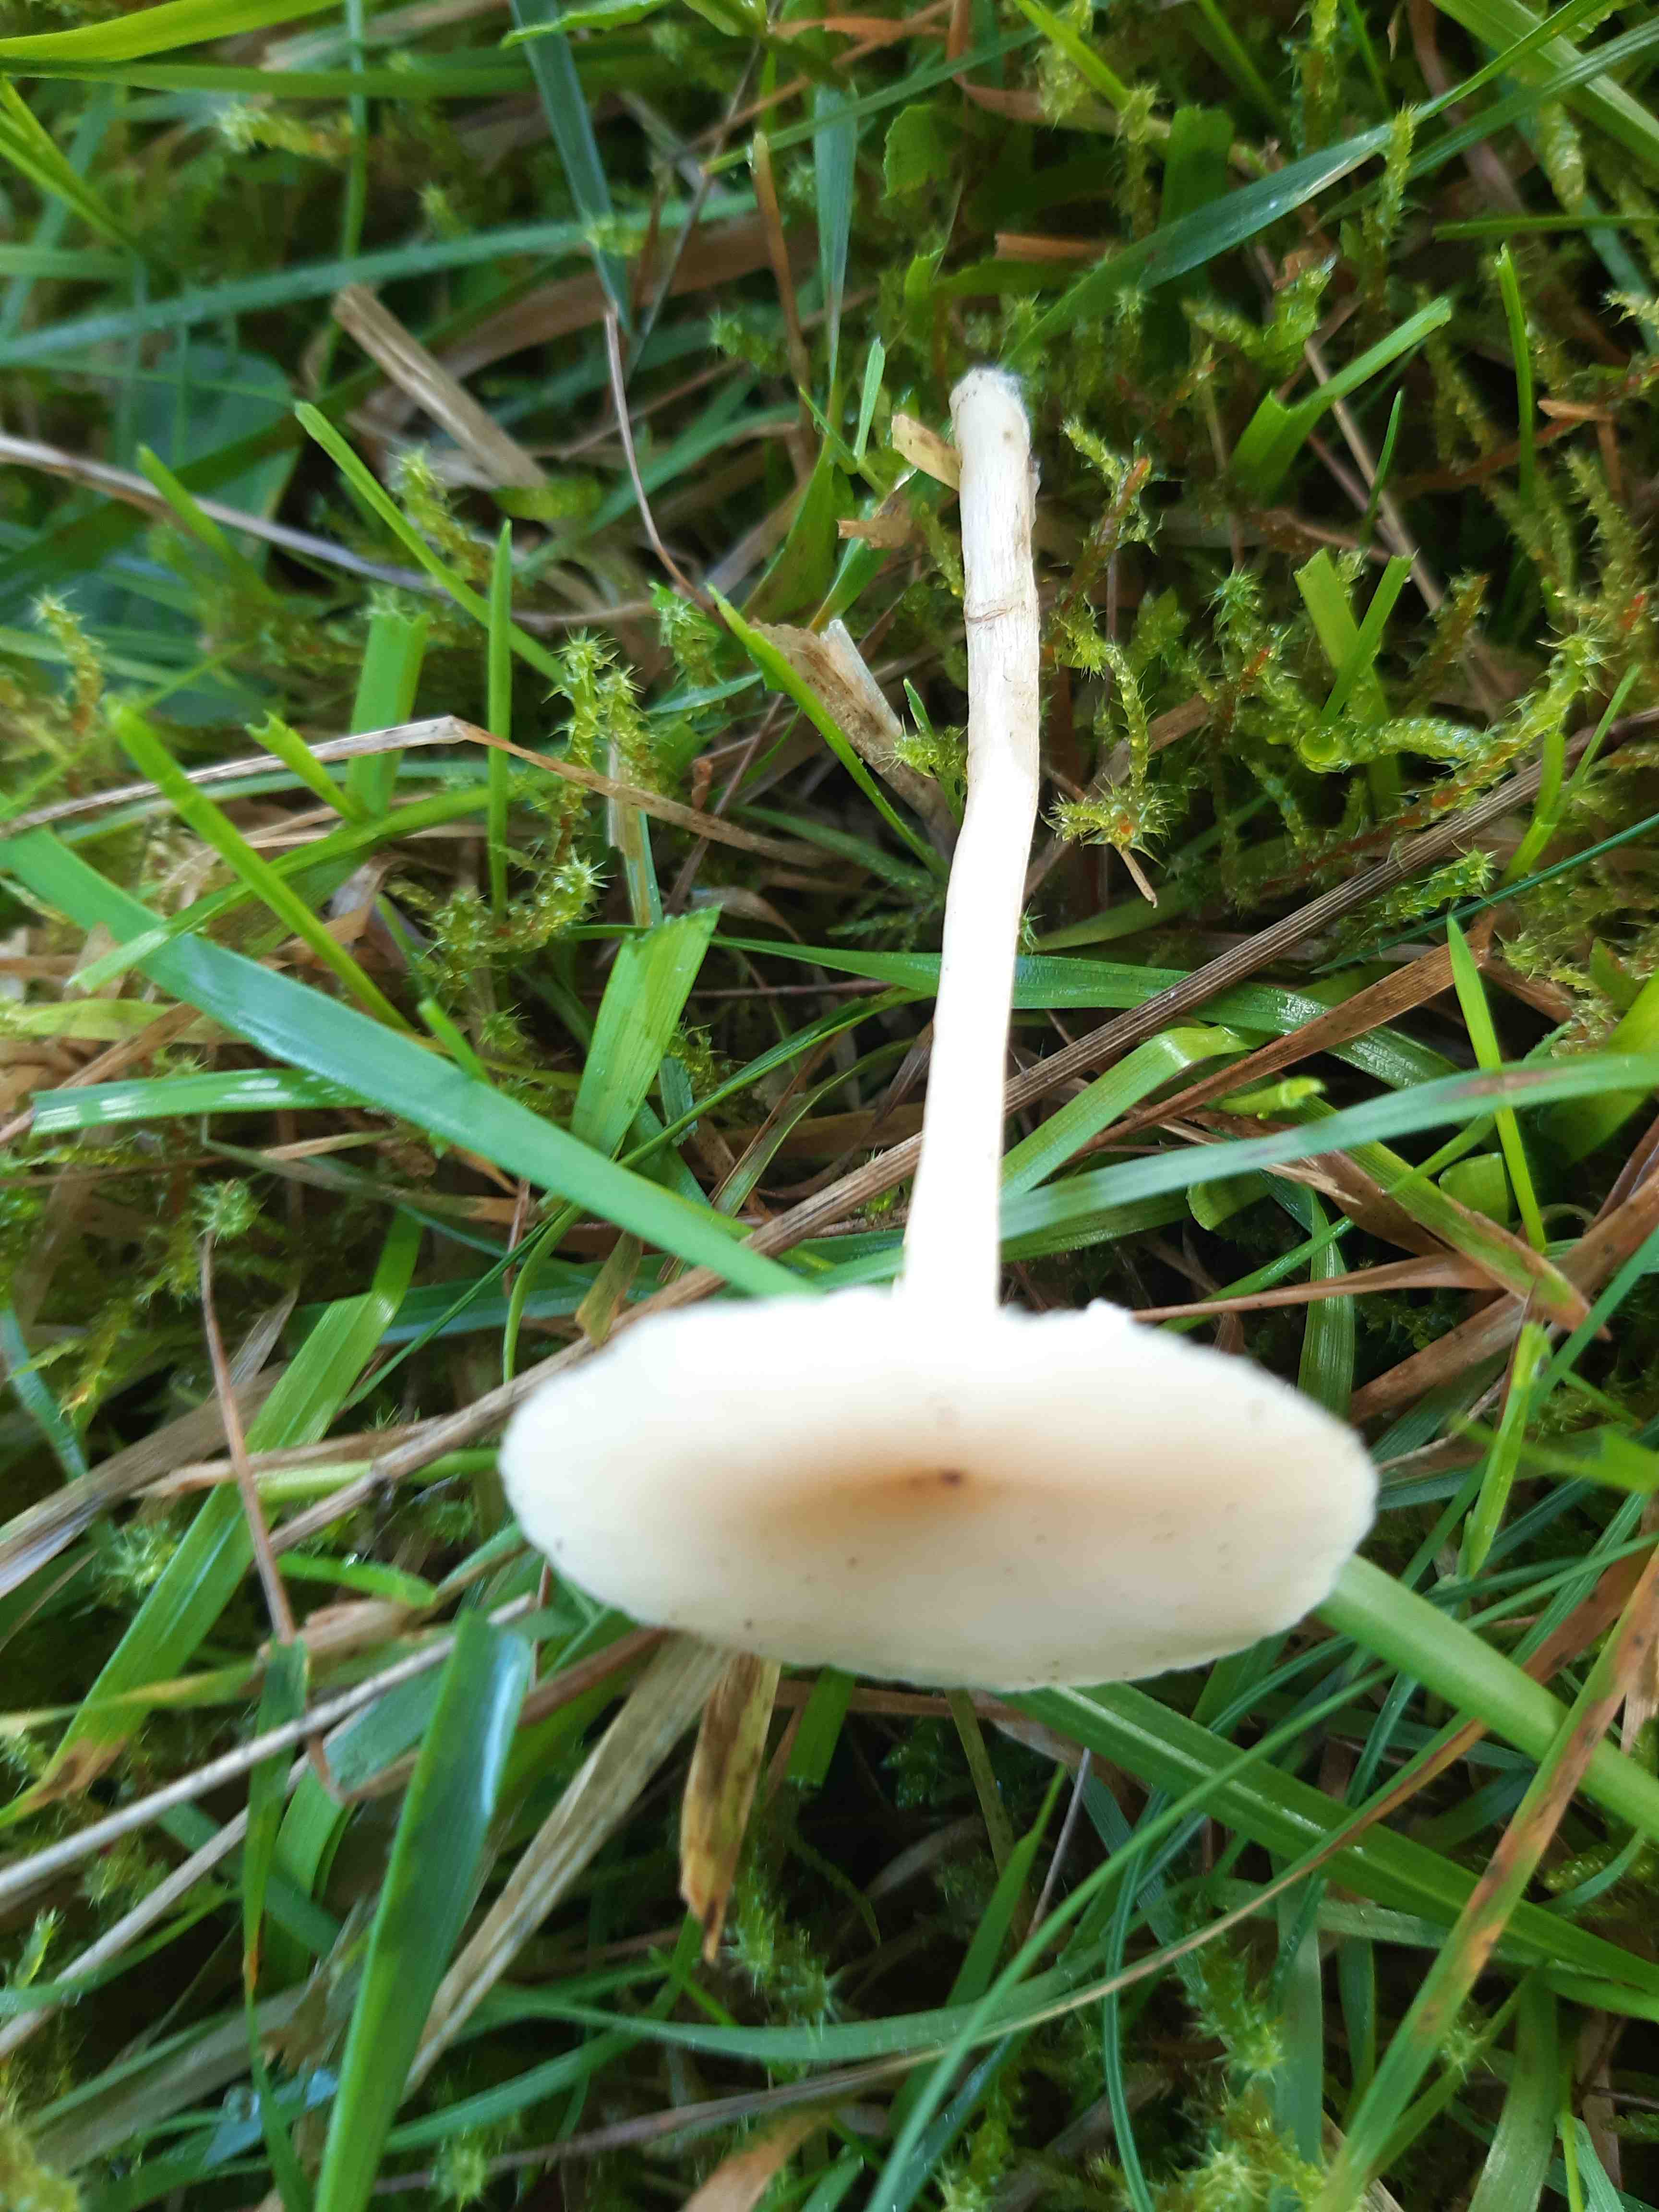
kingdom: Fungi
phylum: Basidiomycota
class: Agaricomycetes
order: Agaricales
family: Tricholomataceae
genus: Clitocybe
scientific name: Clitocybe fragrans
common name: vellugtende tragthat
